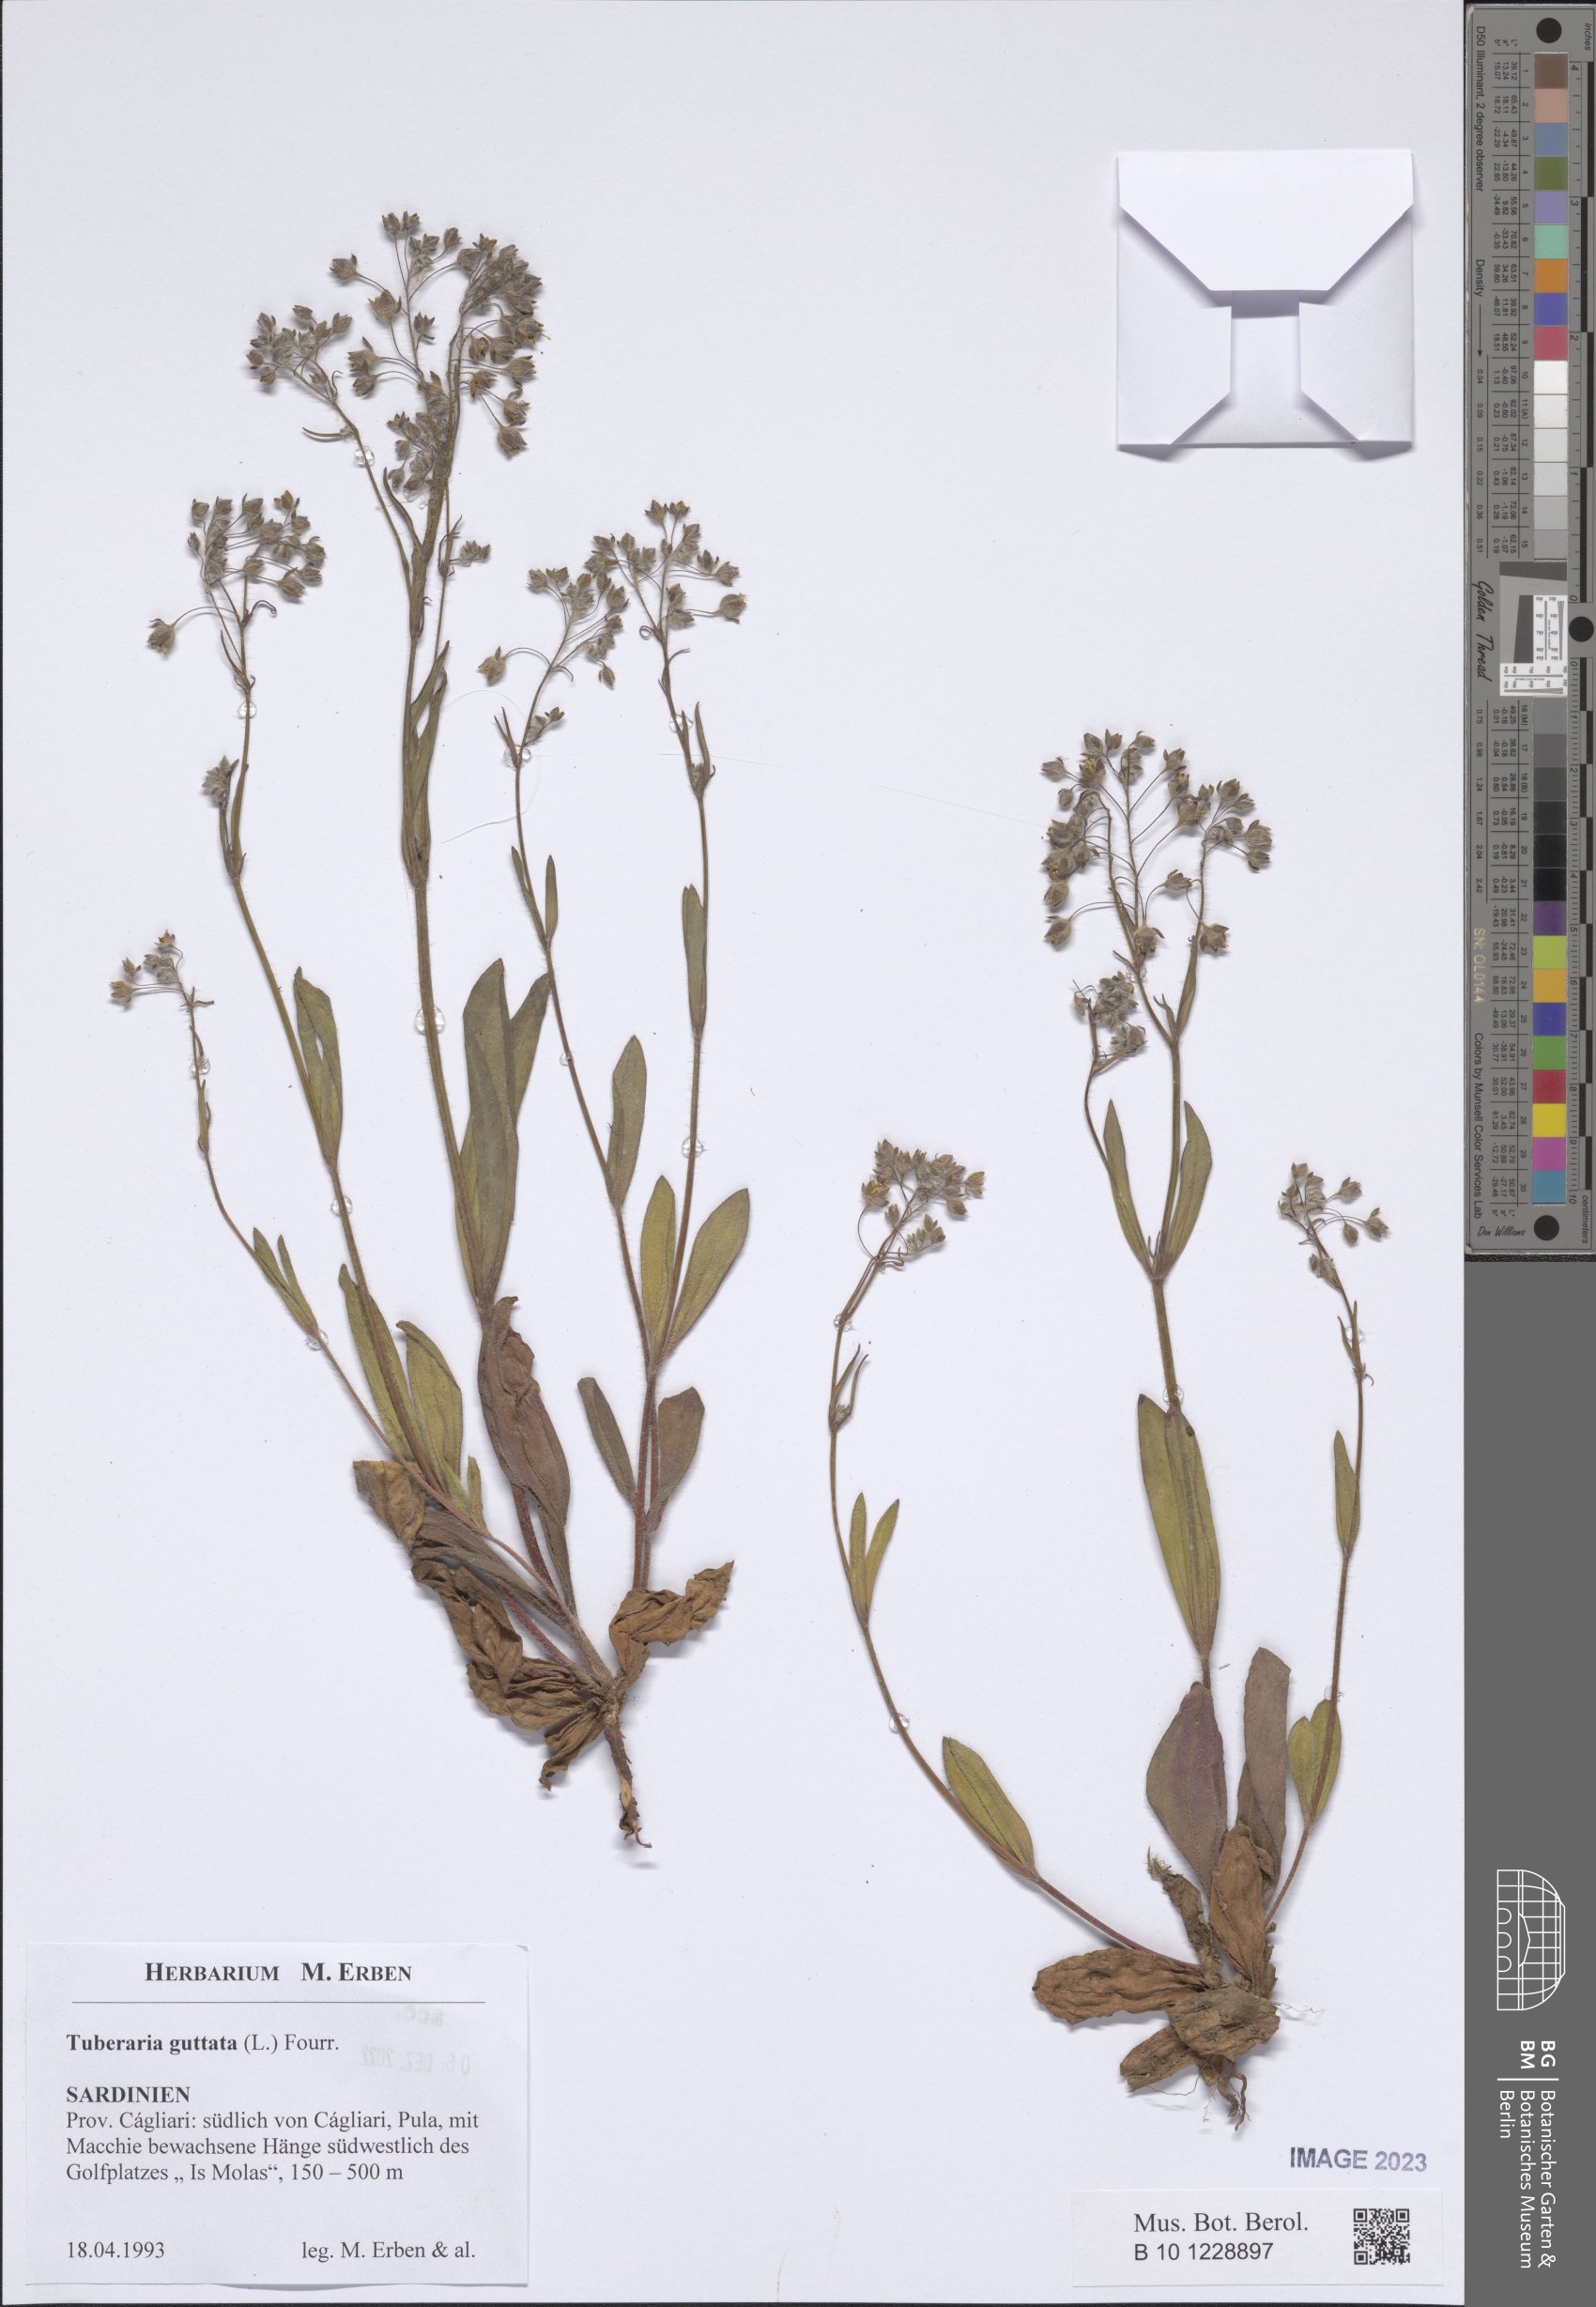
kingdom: Plantae
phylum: Tracheophyta
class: Magnoliopsida
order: Malvales
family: Cistaceae
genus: Tuberaria
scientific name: Tuberaria guttata
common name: Spotted rock-rose
